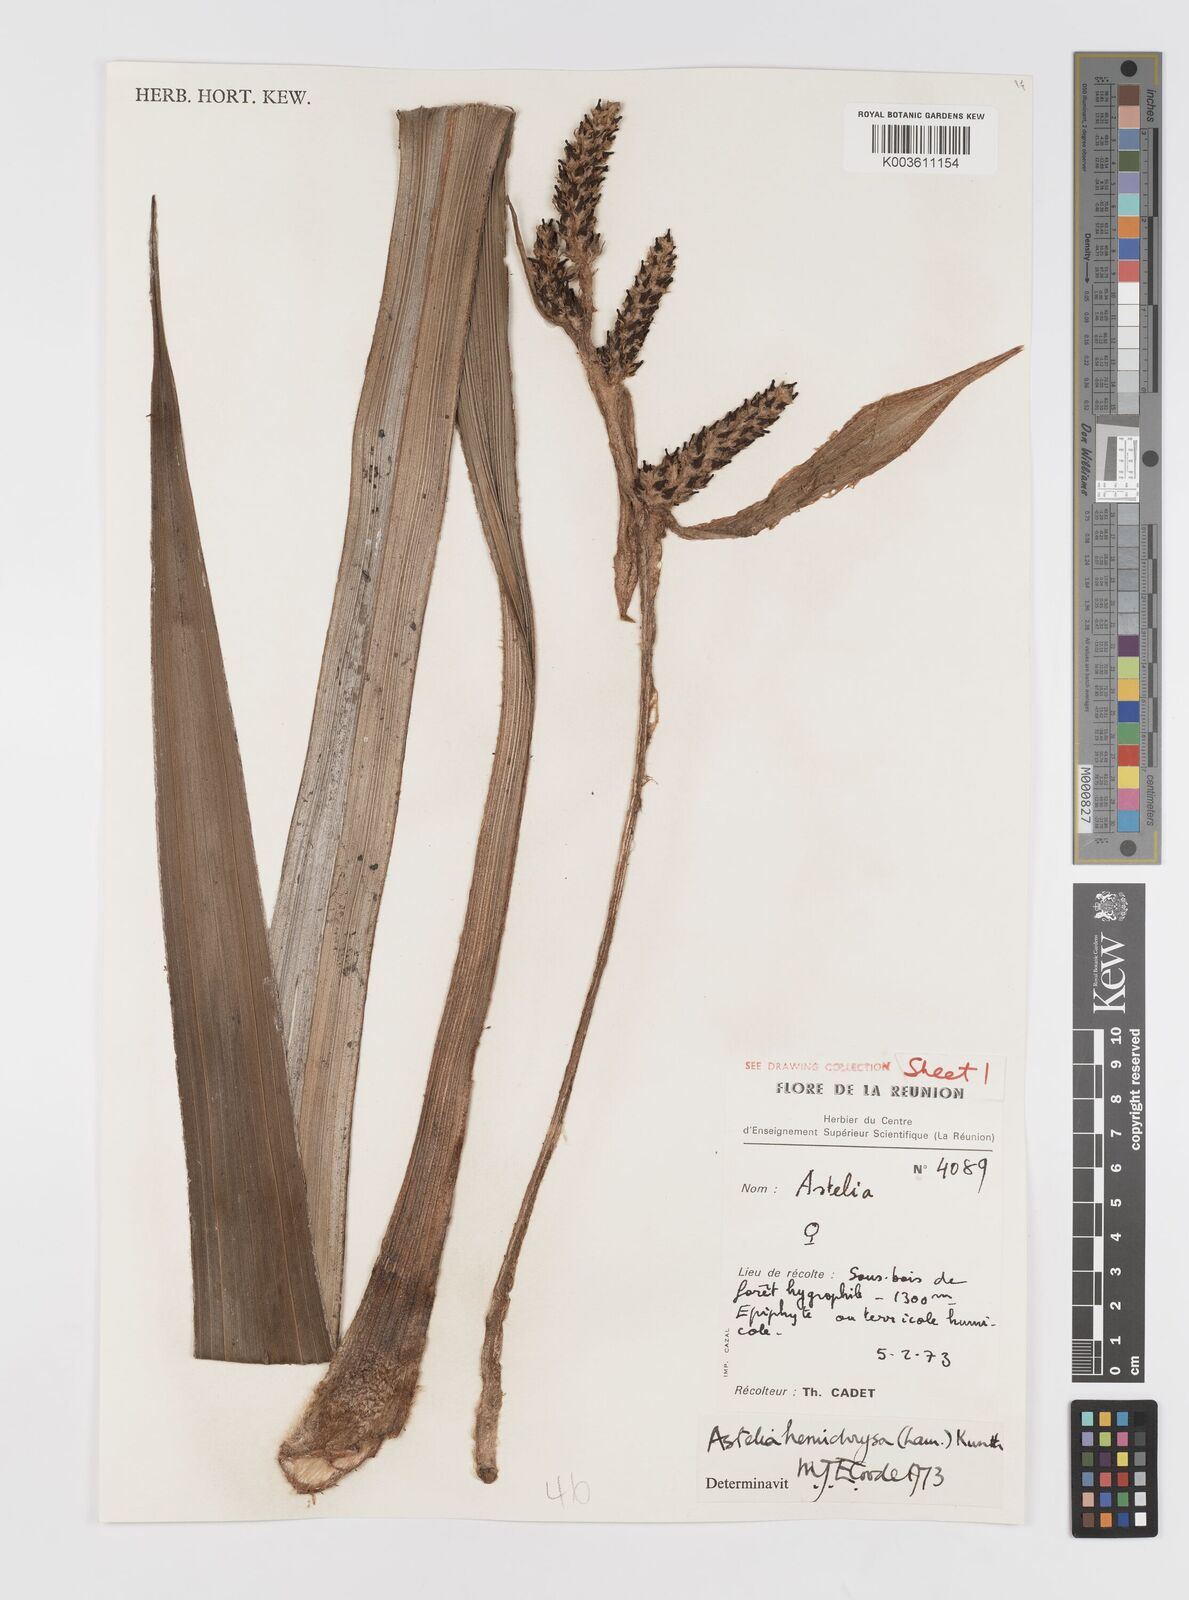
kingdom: Plantae
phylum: Tracheophyta
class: Liliopsida
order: Asparagales
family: Asteliaceae
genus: Astelia
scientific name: Astelia hemichrysa
